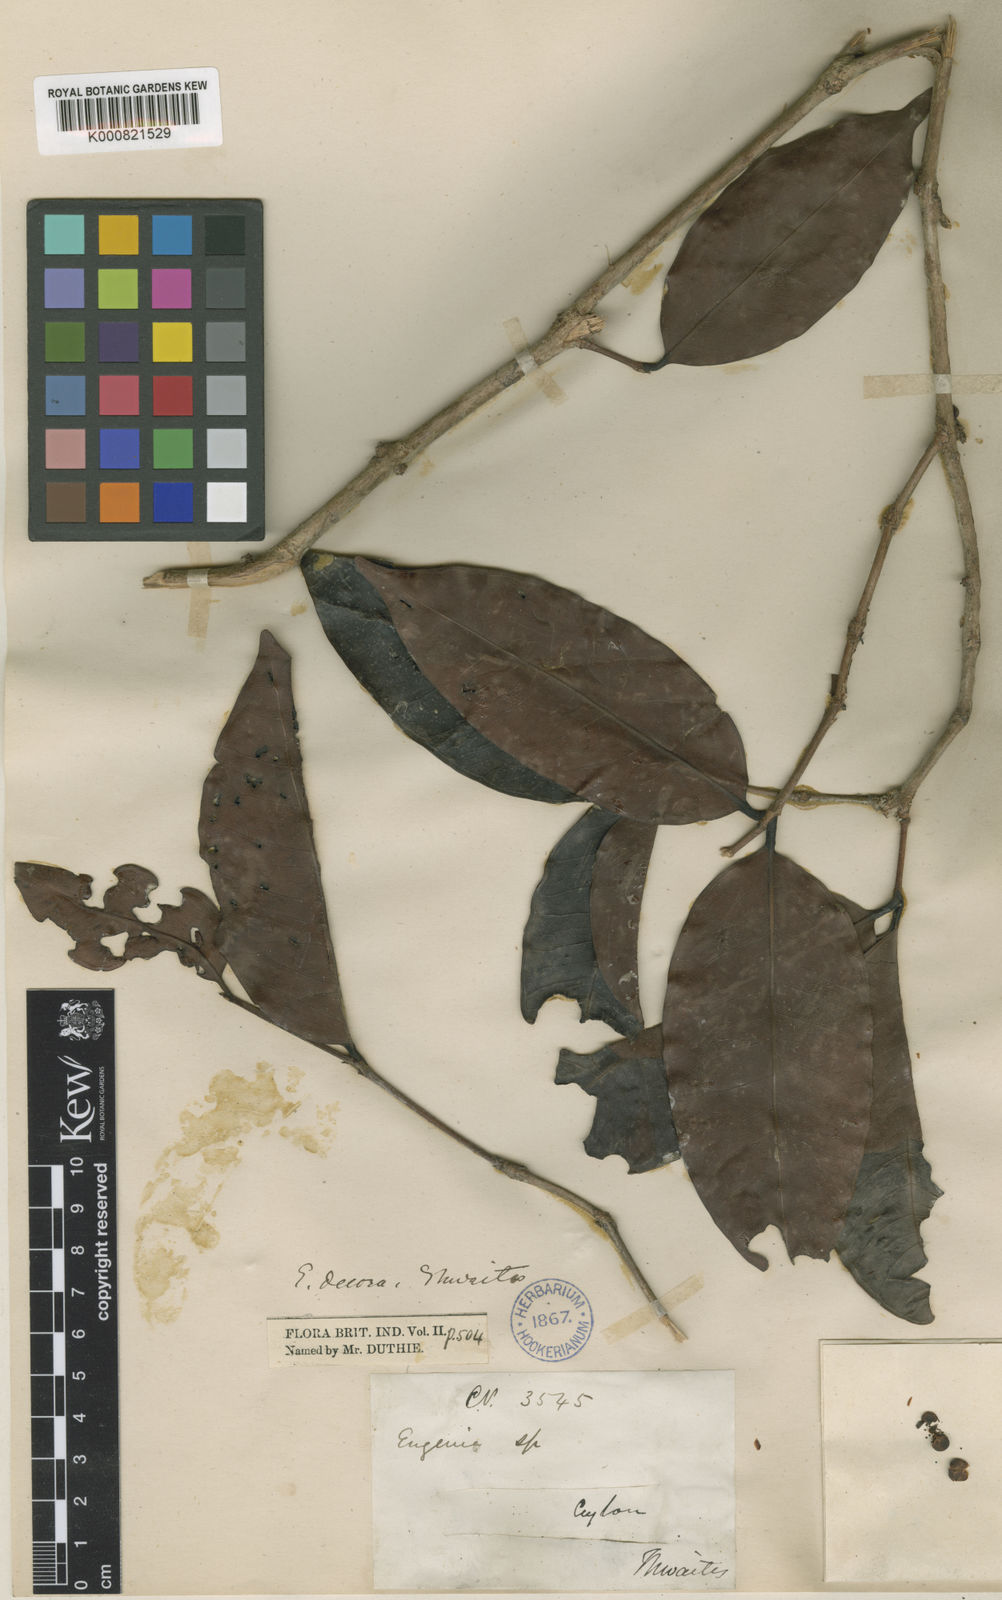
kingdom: Plantae
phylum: Tracheophyta
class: Magnoliopsida
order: Myrtales
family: Myrtaceae
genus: Eugenia
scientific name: Eugenia glabra
